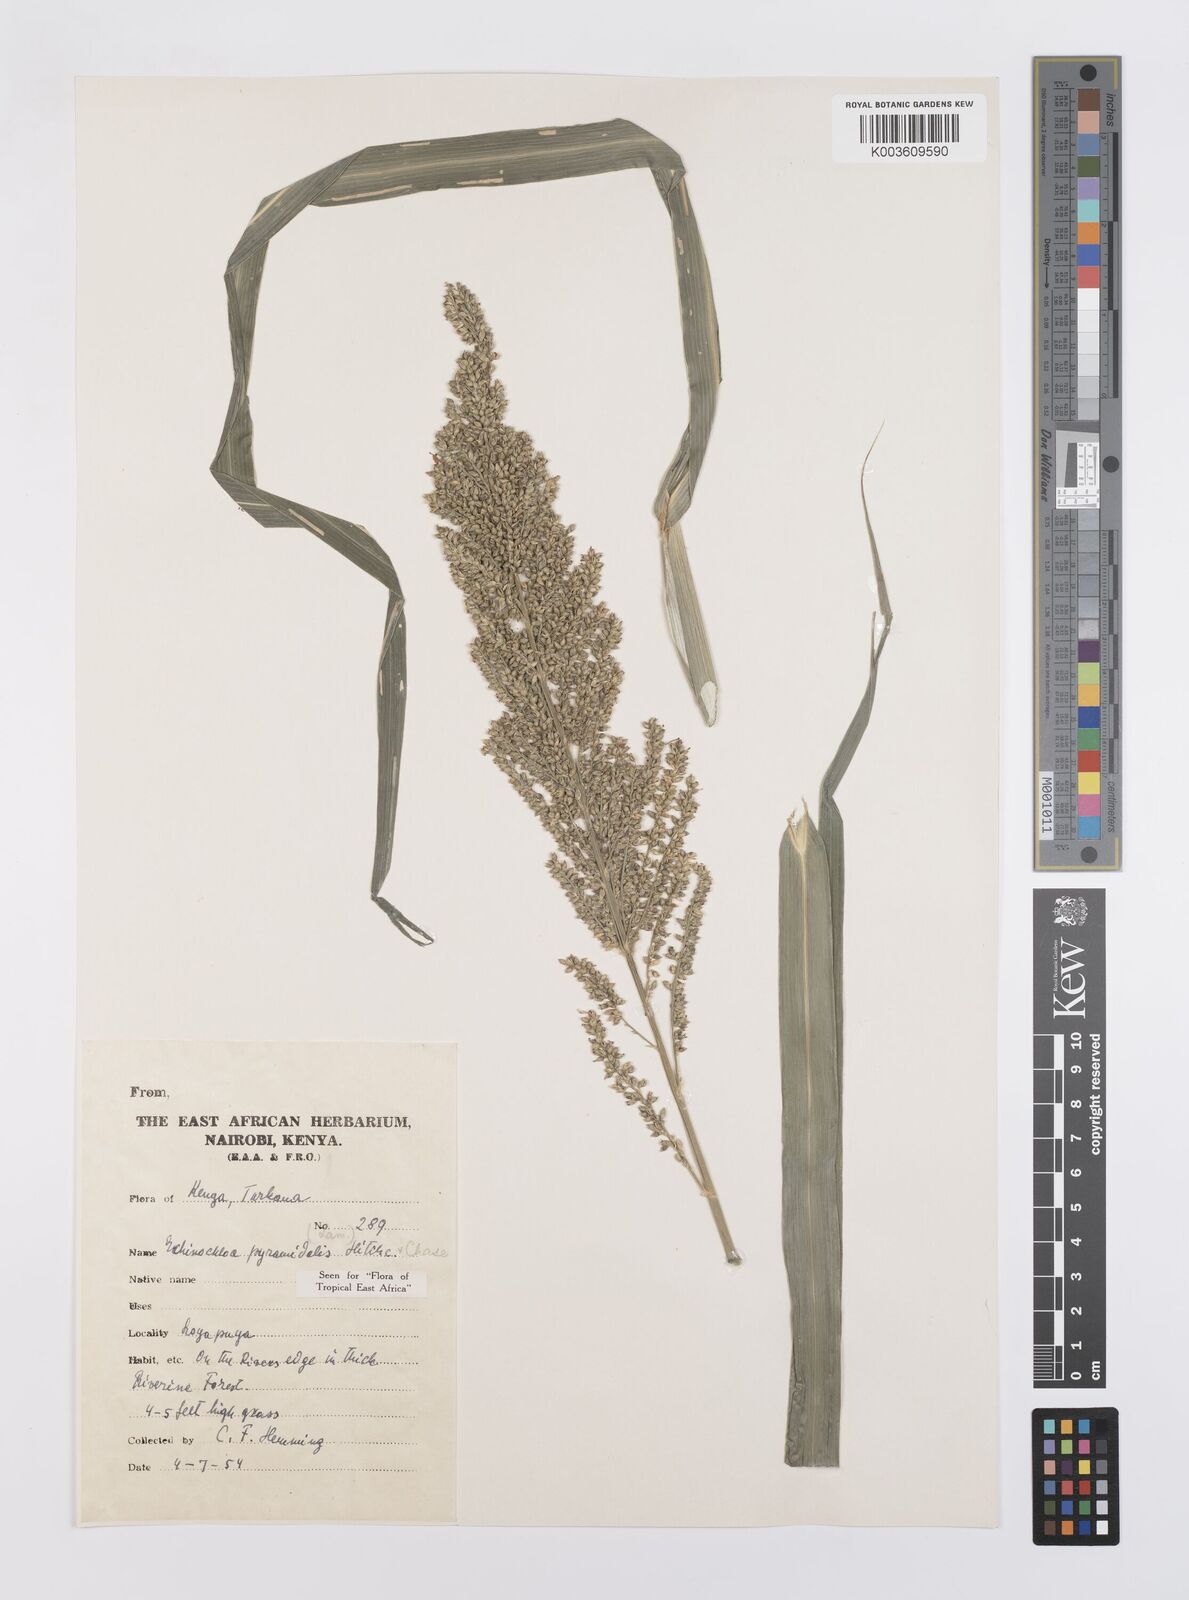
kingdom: Plantae
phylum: Tracheophyta
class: Liliopsida
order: Poales
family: Poaceae
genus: Echinochloa
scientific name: Echinochloa pyramidalis
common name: Antelope grass
